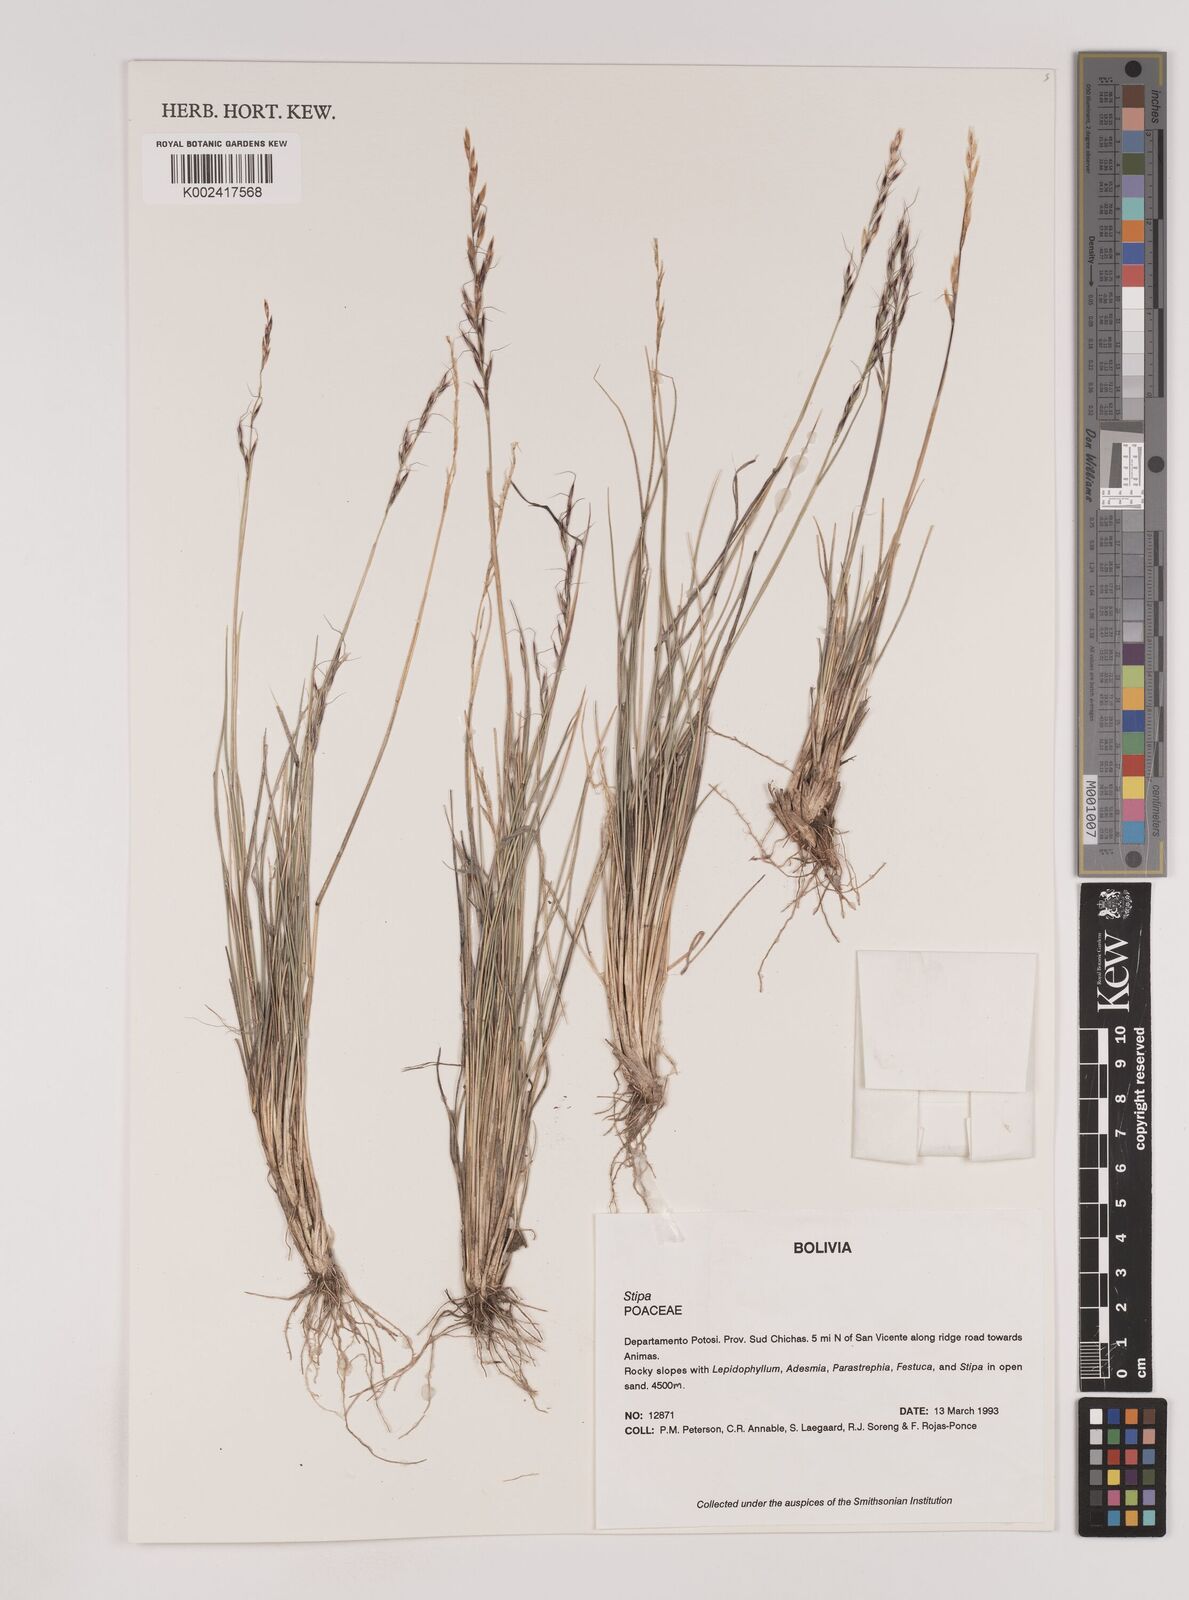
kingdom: Plantae
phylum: Tracheophyta
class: Liliopsida
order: Poales
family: Poaceae
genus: Nassella
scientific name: Nassella rupestris
